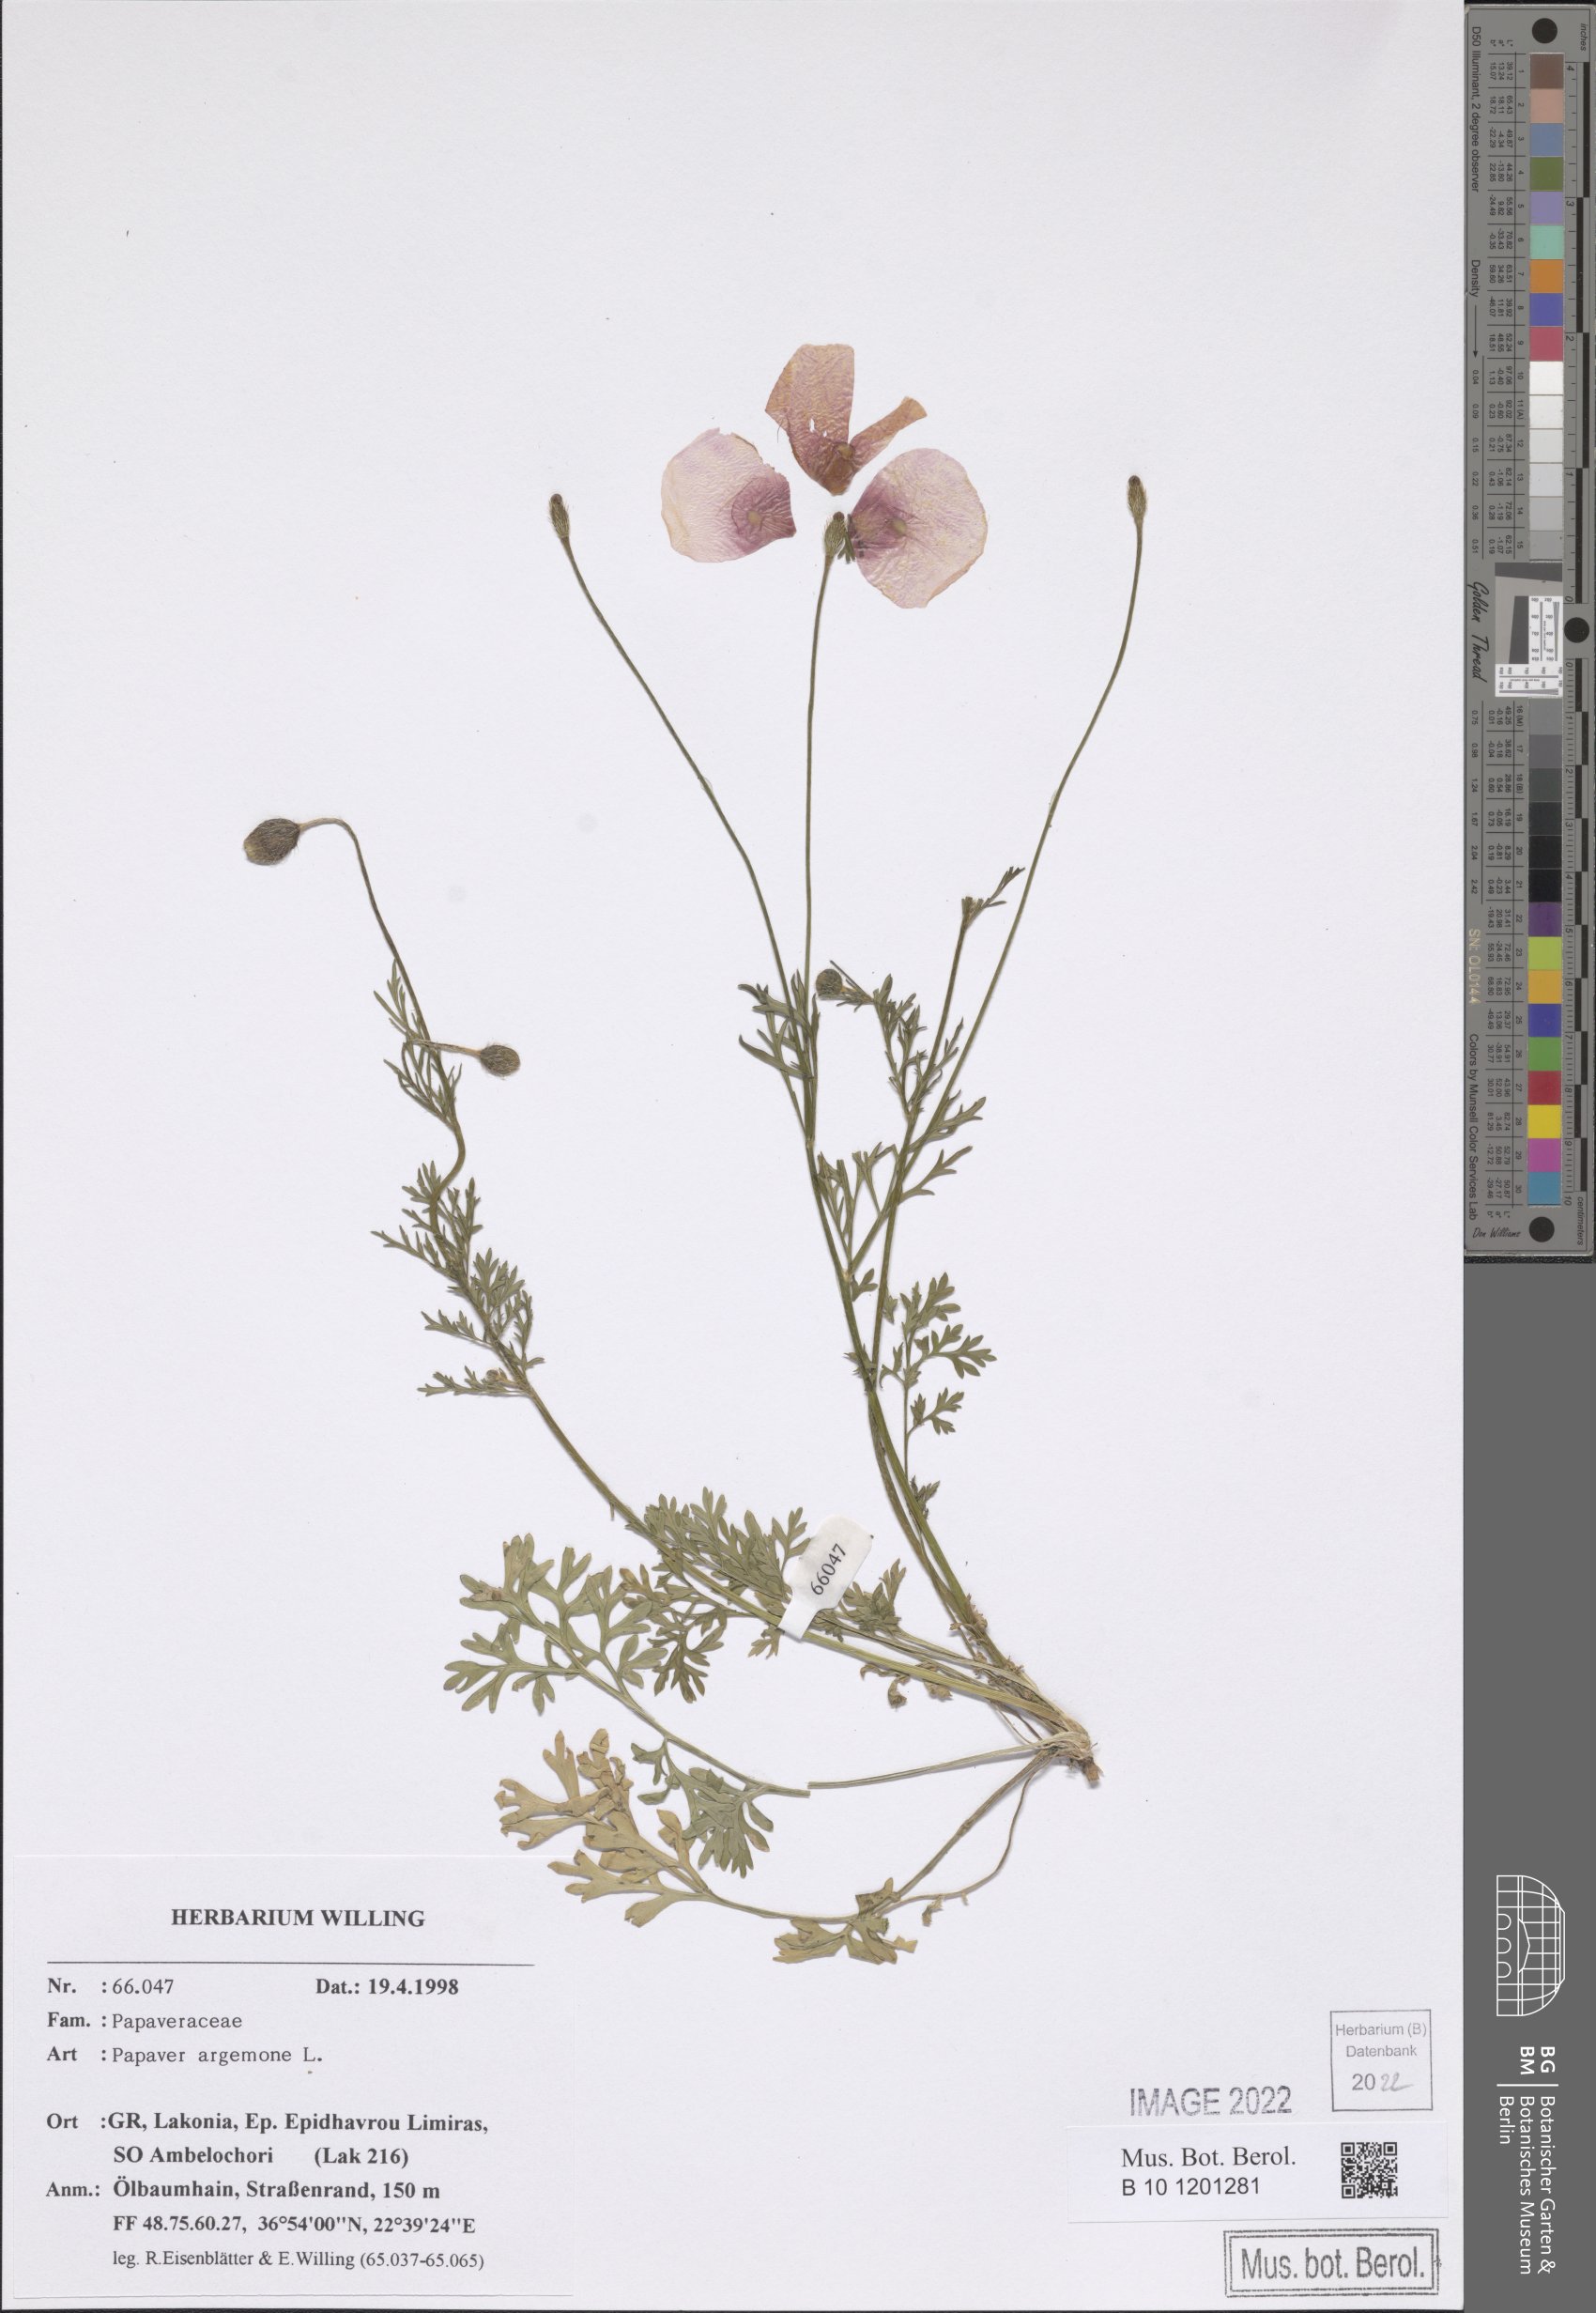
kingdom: Plantae
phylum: Tracheophyta
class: Magnoliopsida
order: Ranunculales
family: Papaveraceae
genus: Roemeria
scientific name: Roemeria argemone
